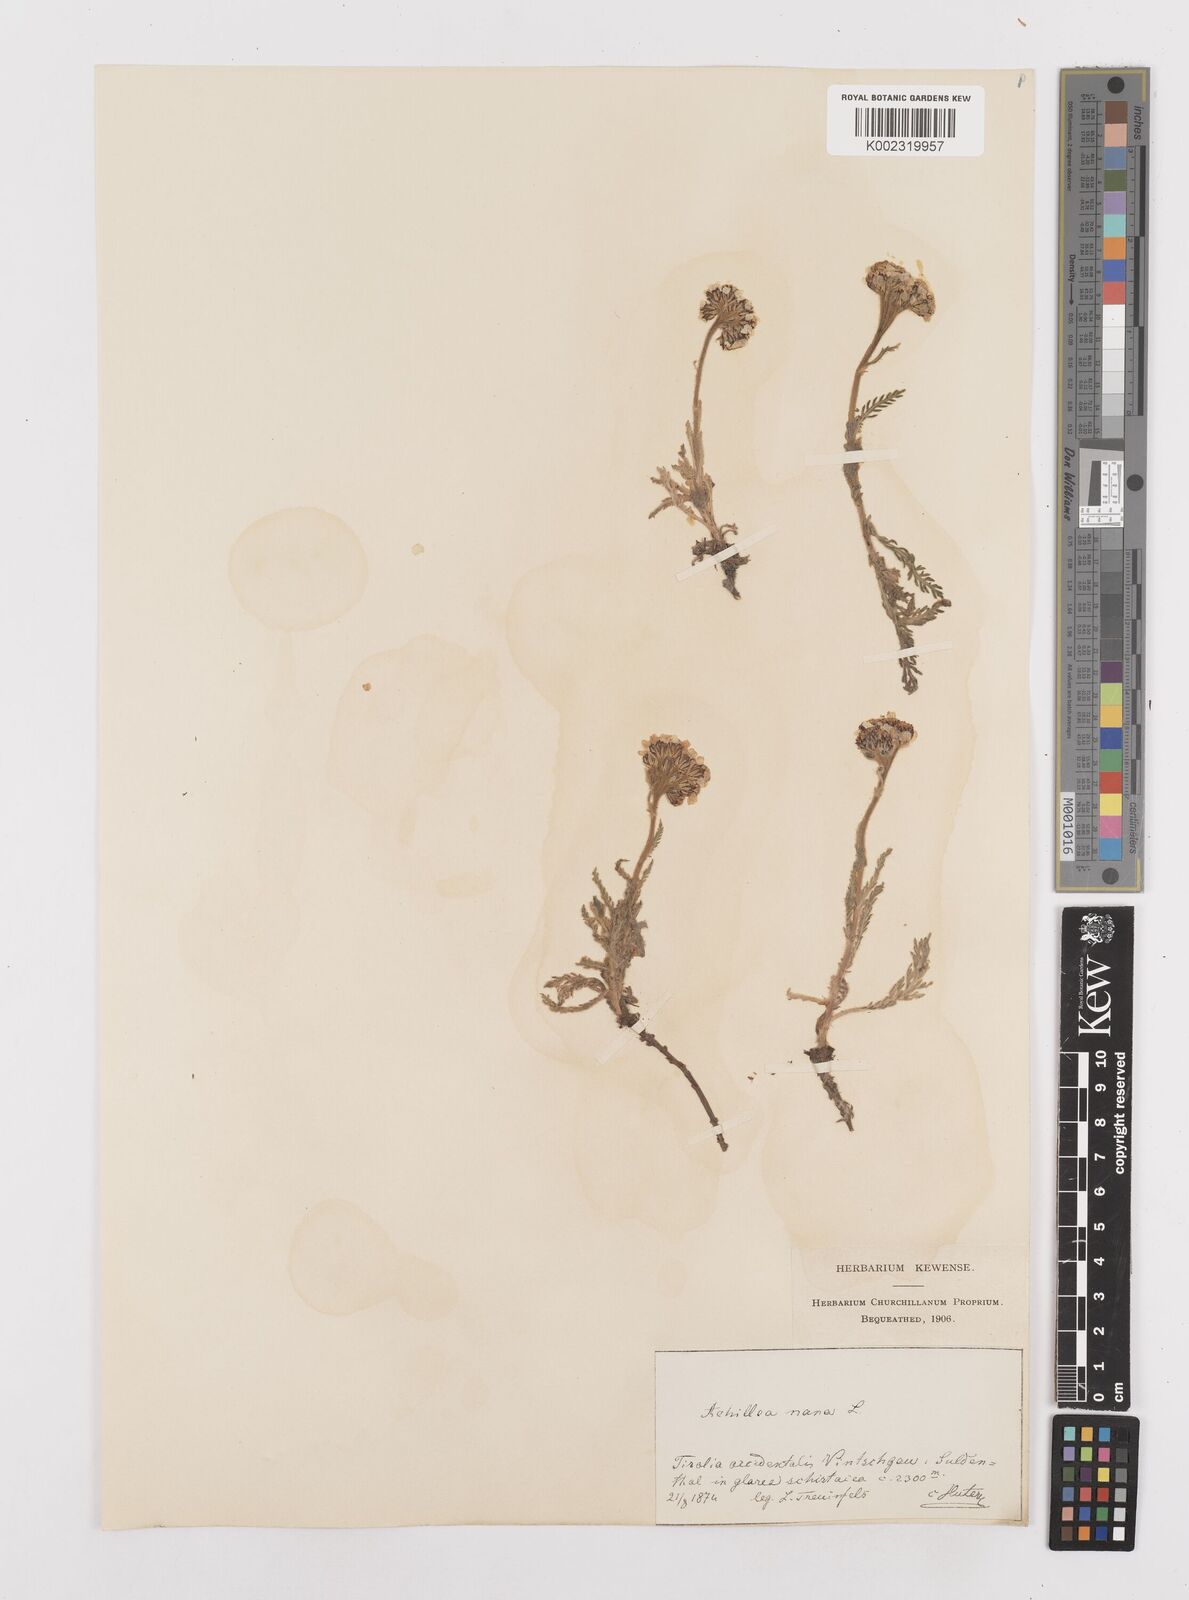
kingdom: Plantae
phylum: Tracheophyta
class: Magnoliopsida
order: Asterales
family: Asteraceae
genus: Achillea
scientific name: Achillea nana
